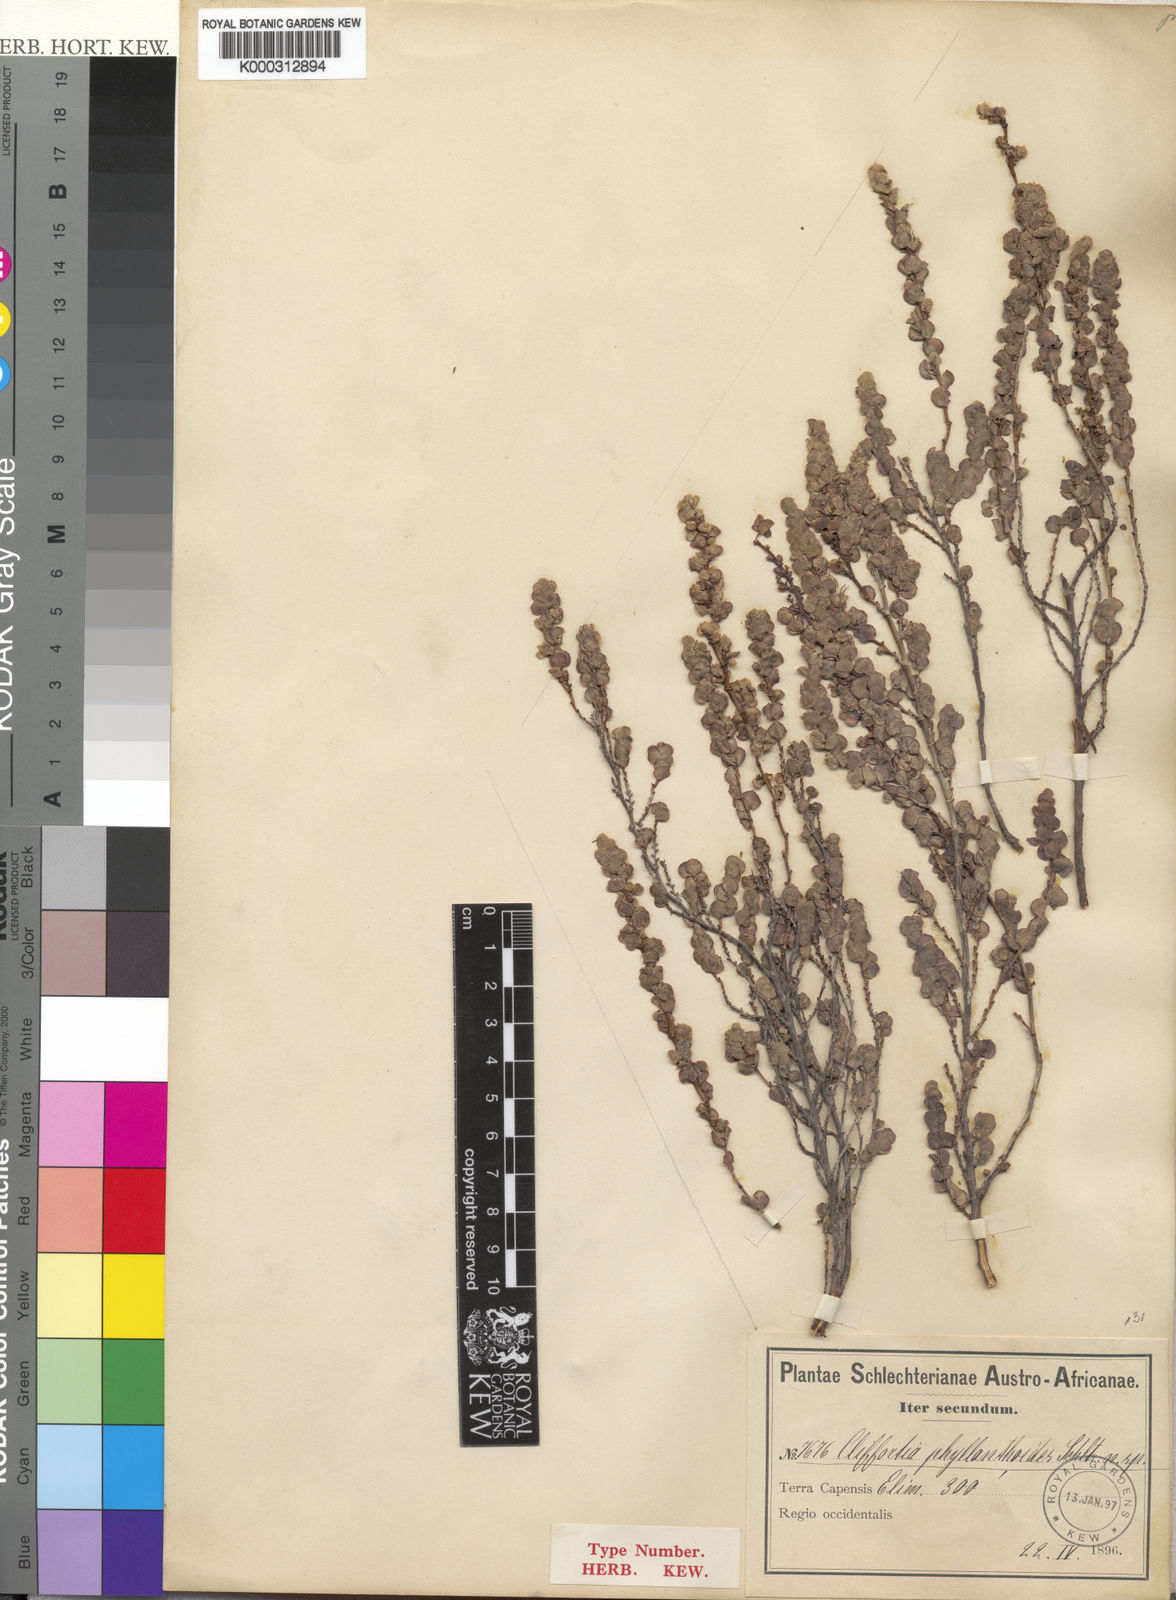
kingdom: Plantae
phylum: Tracheophyta
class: Magnoliopsida
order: Rosales
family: Rosaceae
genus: Cliffortia
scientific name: Cliffortia phyllanthoides
